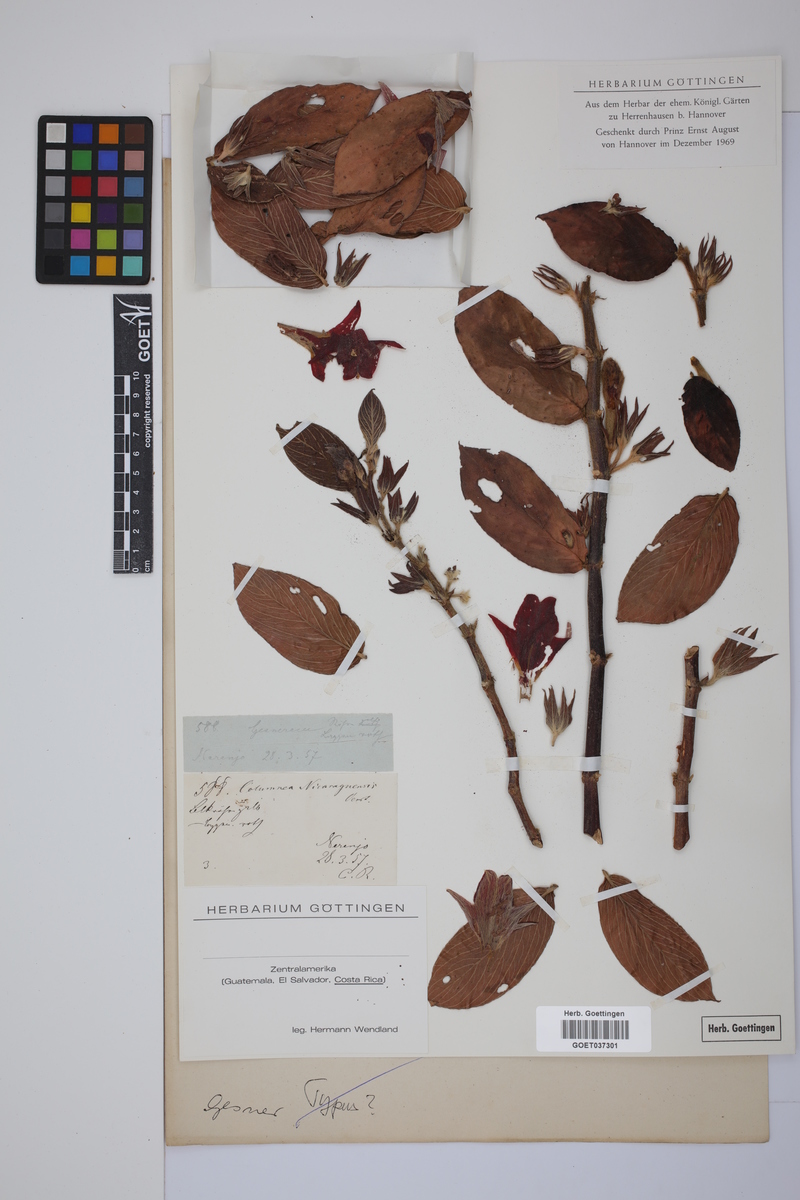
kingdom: Plantae
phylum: Tracheophyta
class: Magnoliopsida
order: Lamiales
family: Gesneriaceae
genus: Columnea
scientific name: Columnea nicaraguensis
